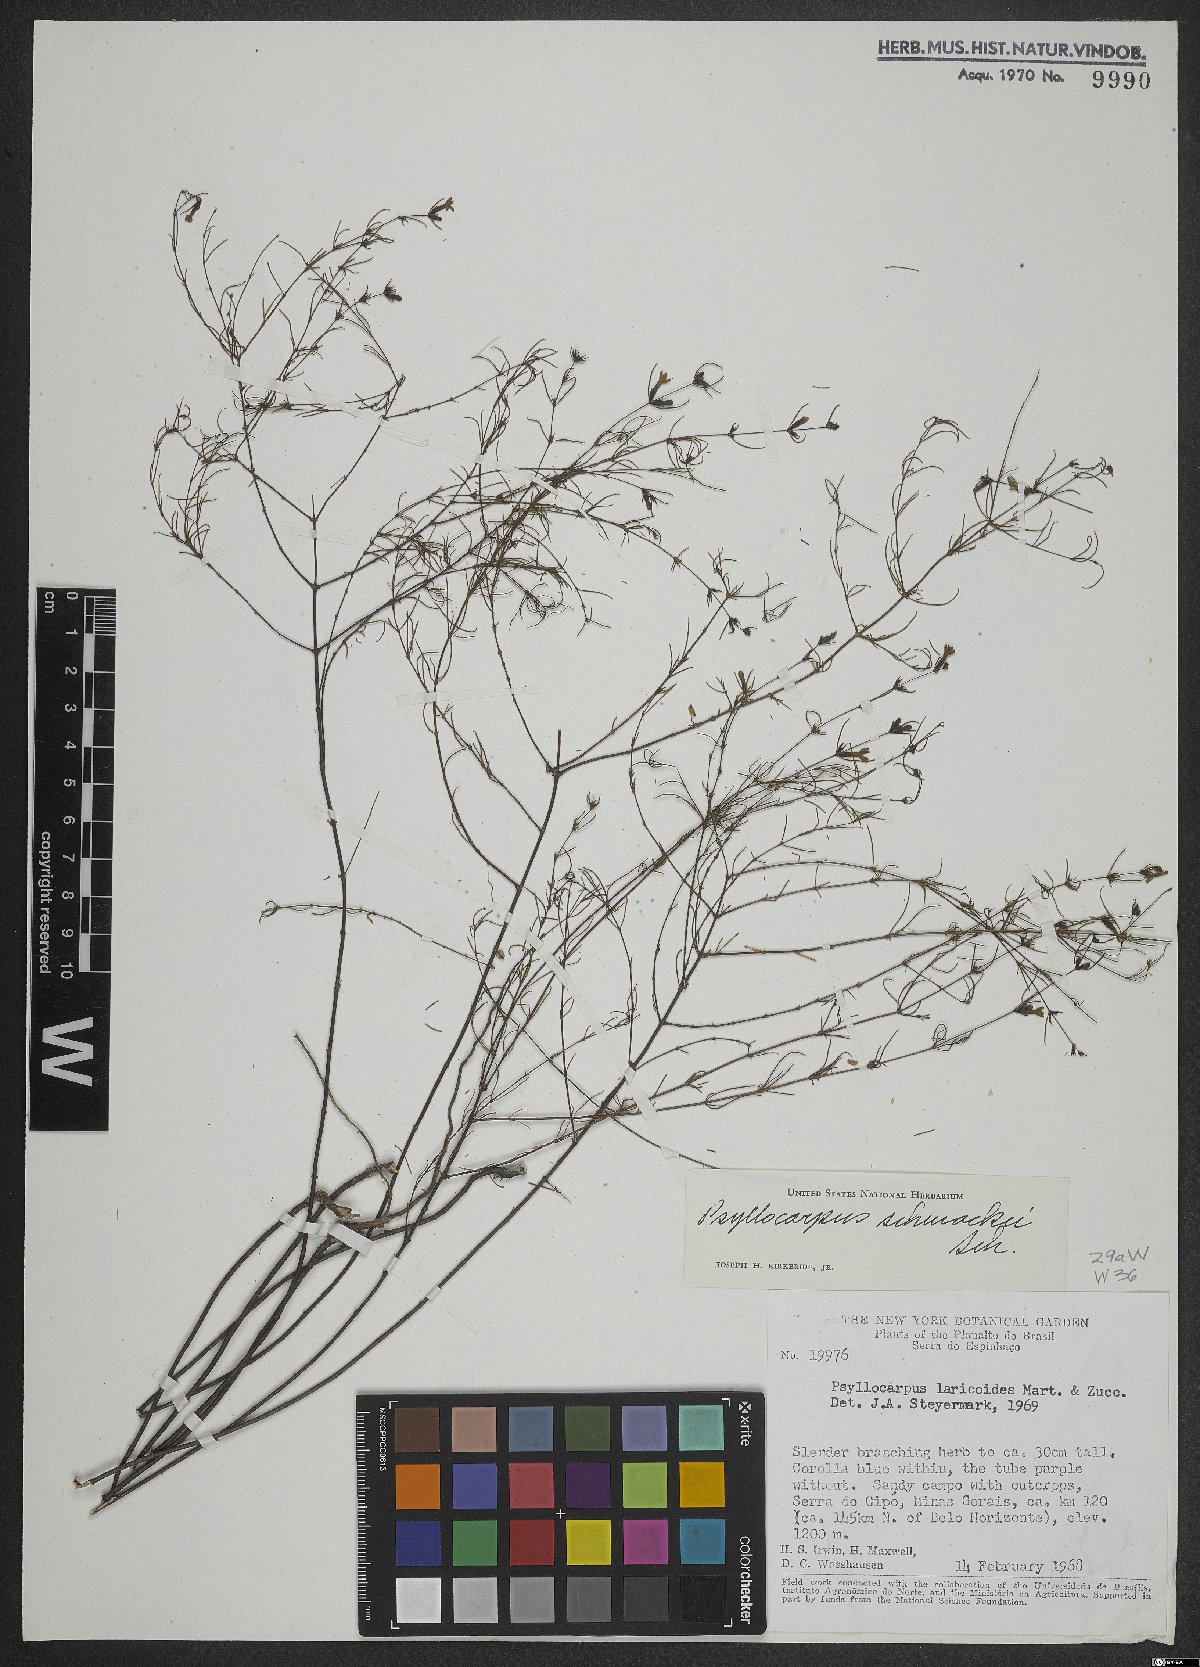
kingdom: Plantae
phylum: Tracheophyta
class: Magnoliopsida
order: Gentianales
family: Rubiaceae
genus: Psyllocarpus
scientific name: Psyllocarpus schwackei
